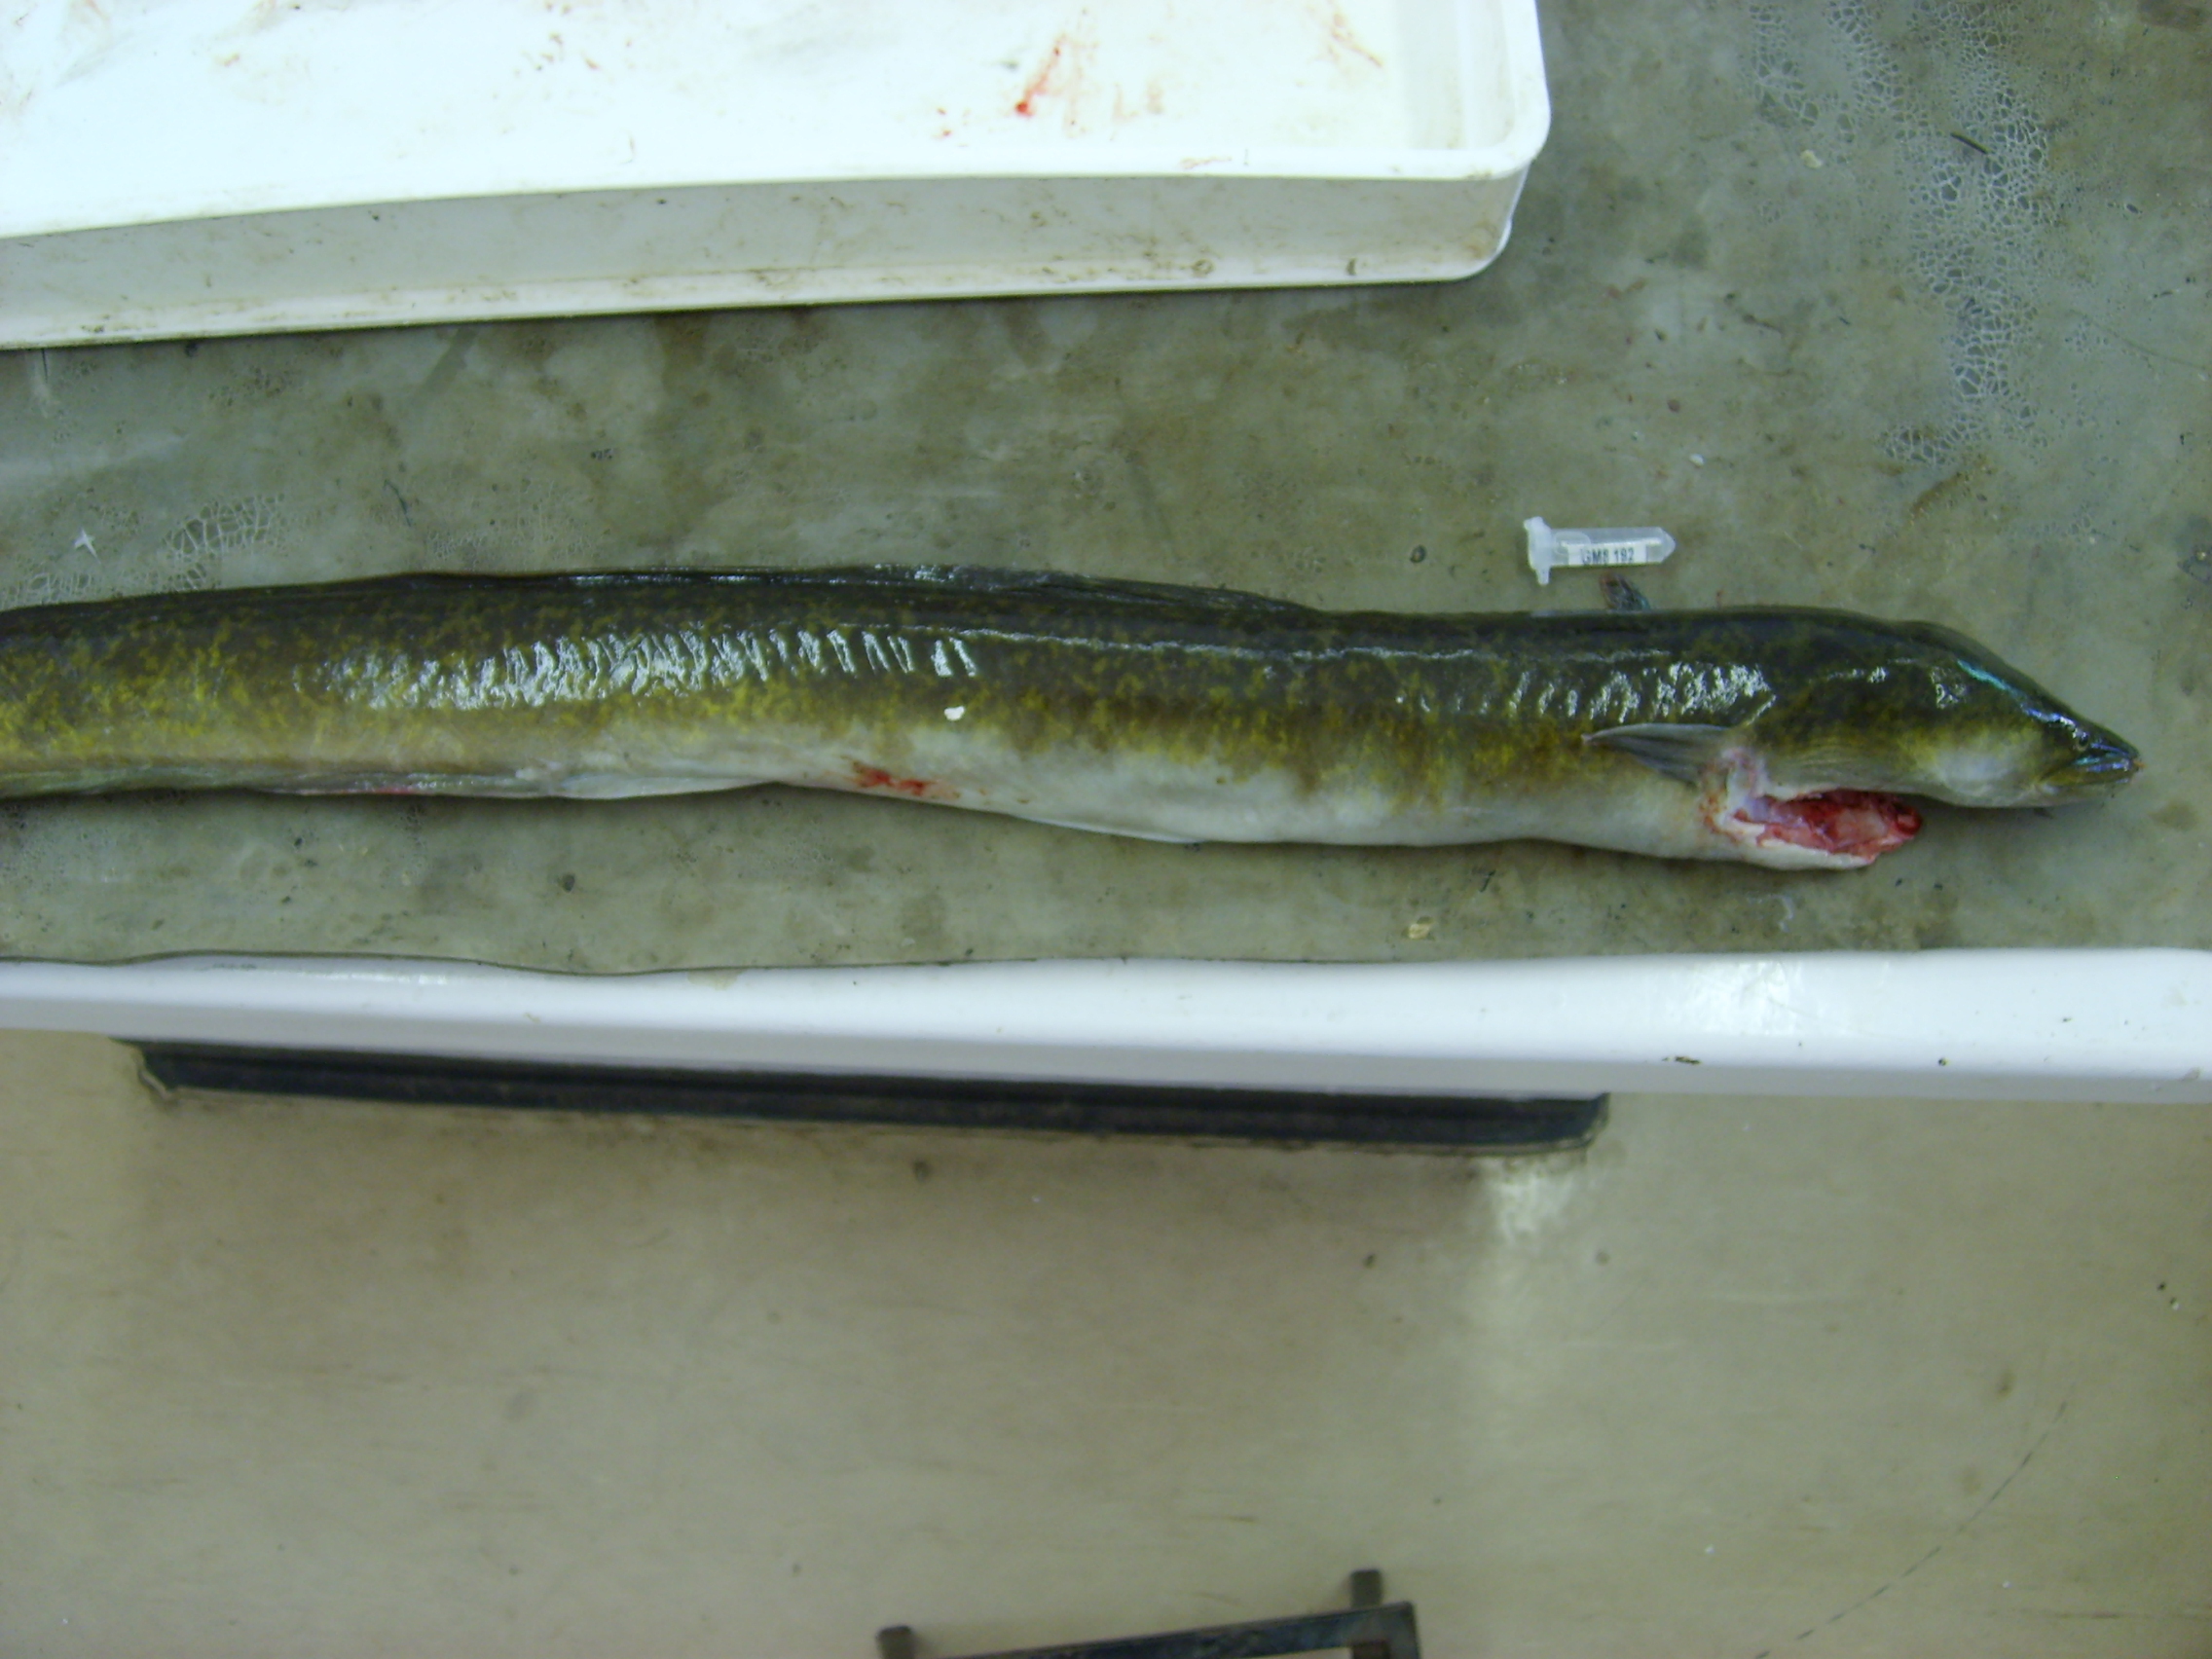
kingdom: Animalia
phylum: Chordata
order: Anguilliformes
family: Anguillidae
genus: Anguilla
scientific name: Anguilla marmorata
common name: Giant mottled eel
